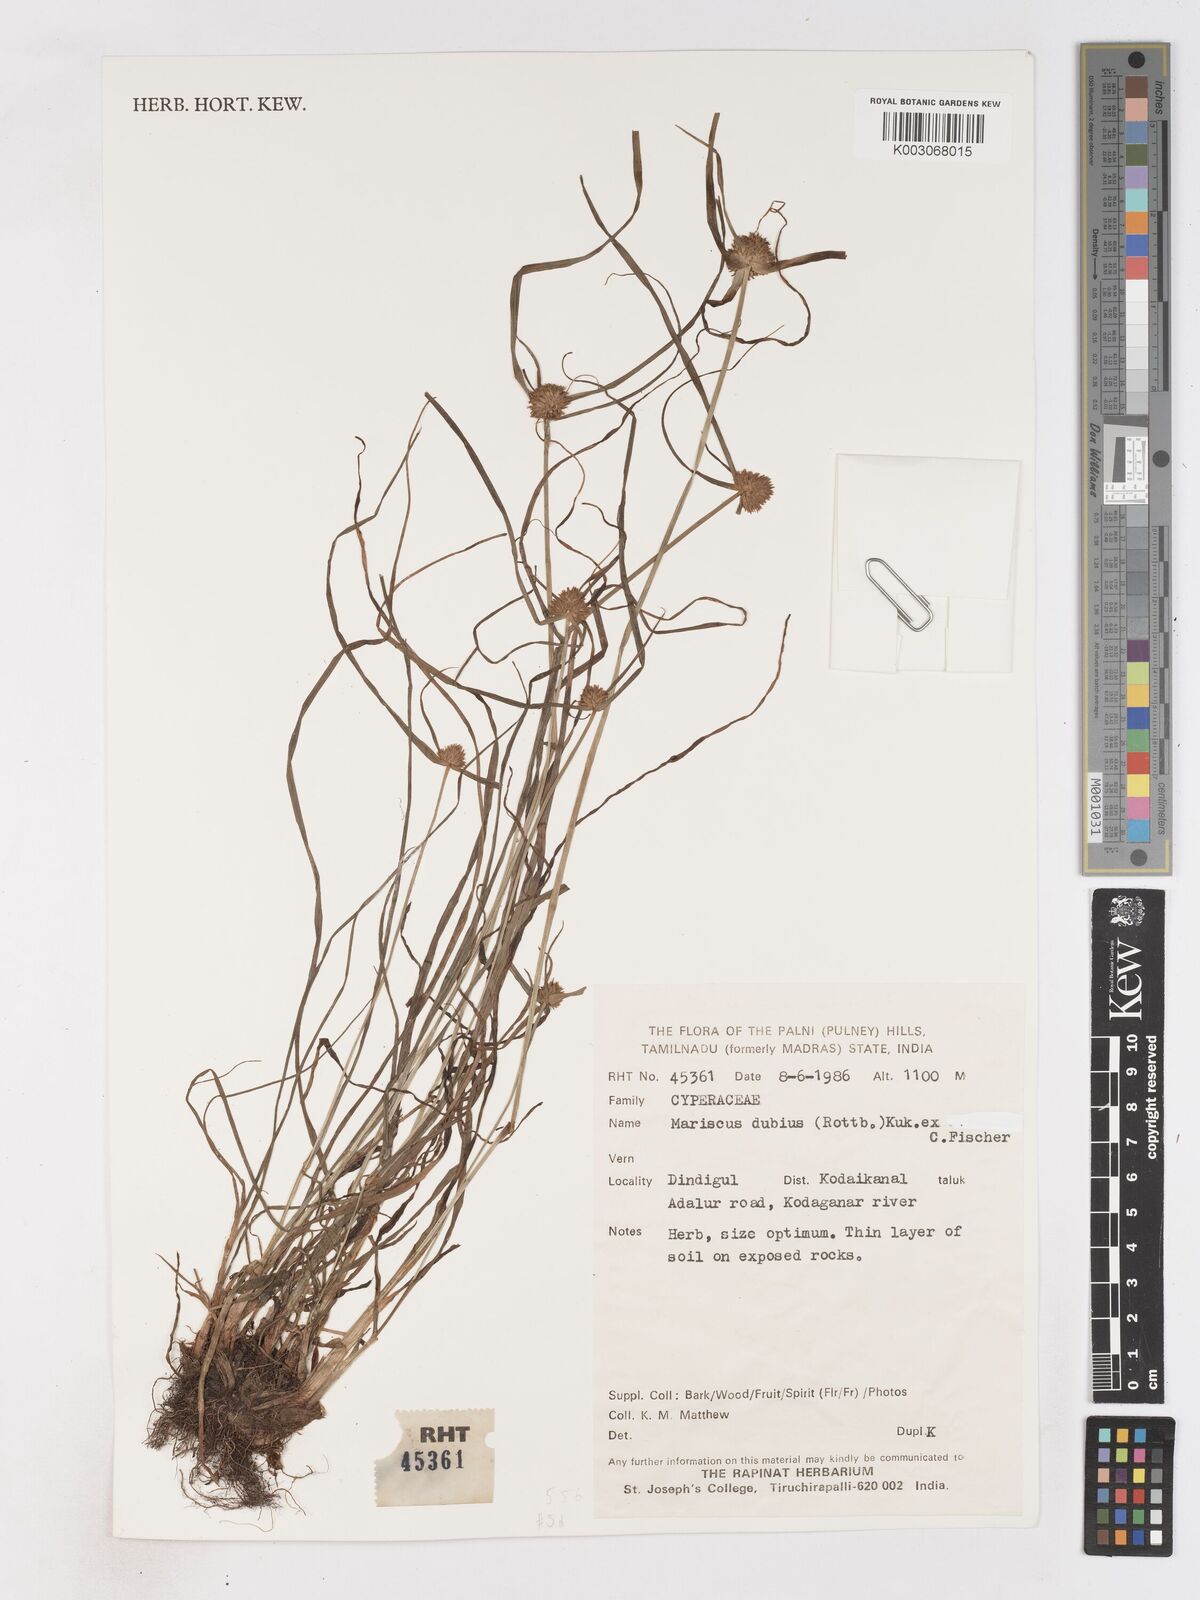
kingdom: Plantae
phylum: Tracheophyta
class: Liliopsida
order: Poales
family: Cyperaceae
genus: Cyperus
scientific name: Cyperus dubius
